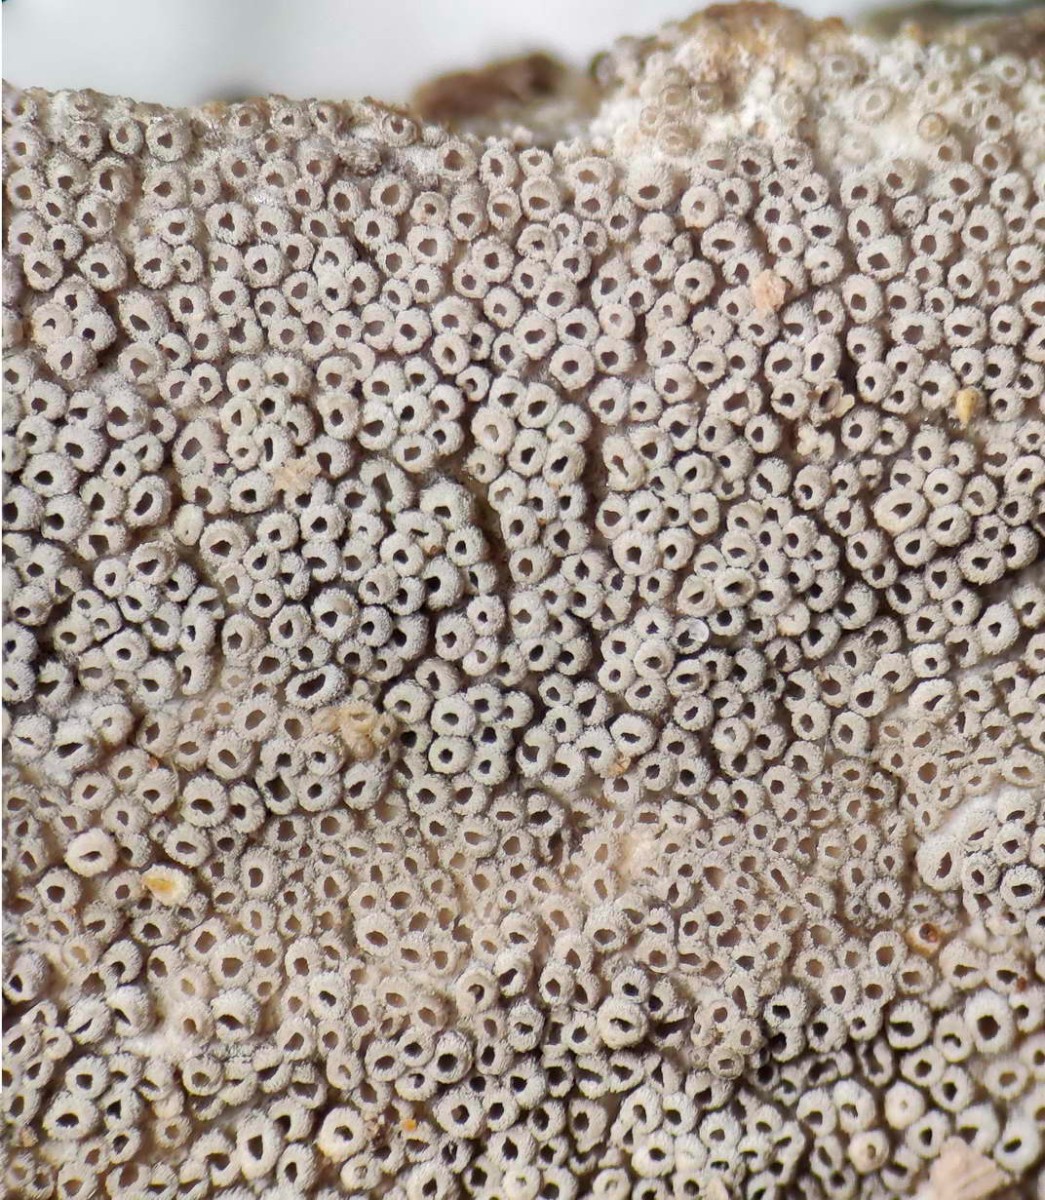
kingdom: Fungi
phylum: Basidiomycota
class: Agaricomycetes
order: Agaricales
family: Pleurotaceae
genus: Resupinatus
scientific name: Resupinatus poriaeformis
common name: tæpperør
